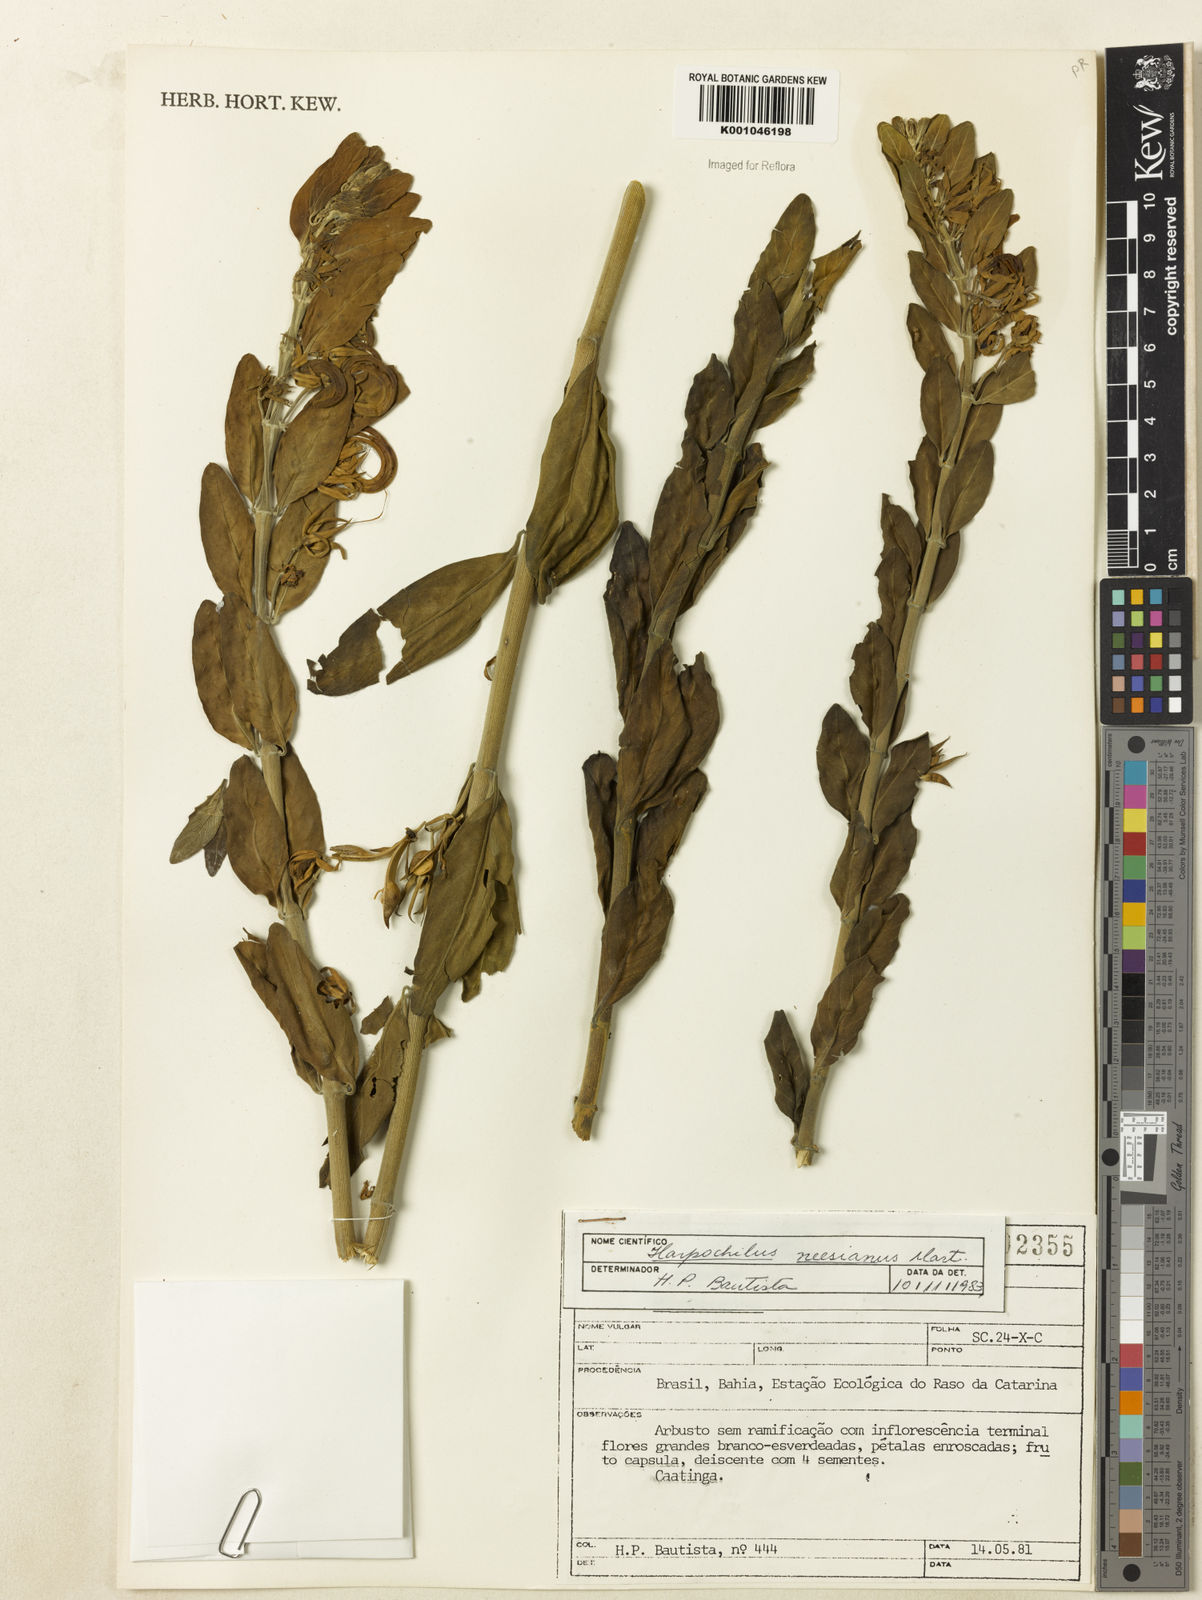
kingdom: Plantae
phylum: Tracheophyta
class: Magnoliopsida
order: Lamiales
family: Acanthaceae
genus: Harpochilus
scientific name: Harpochilus neesianus
